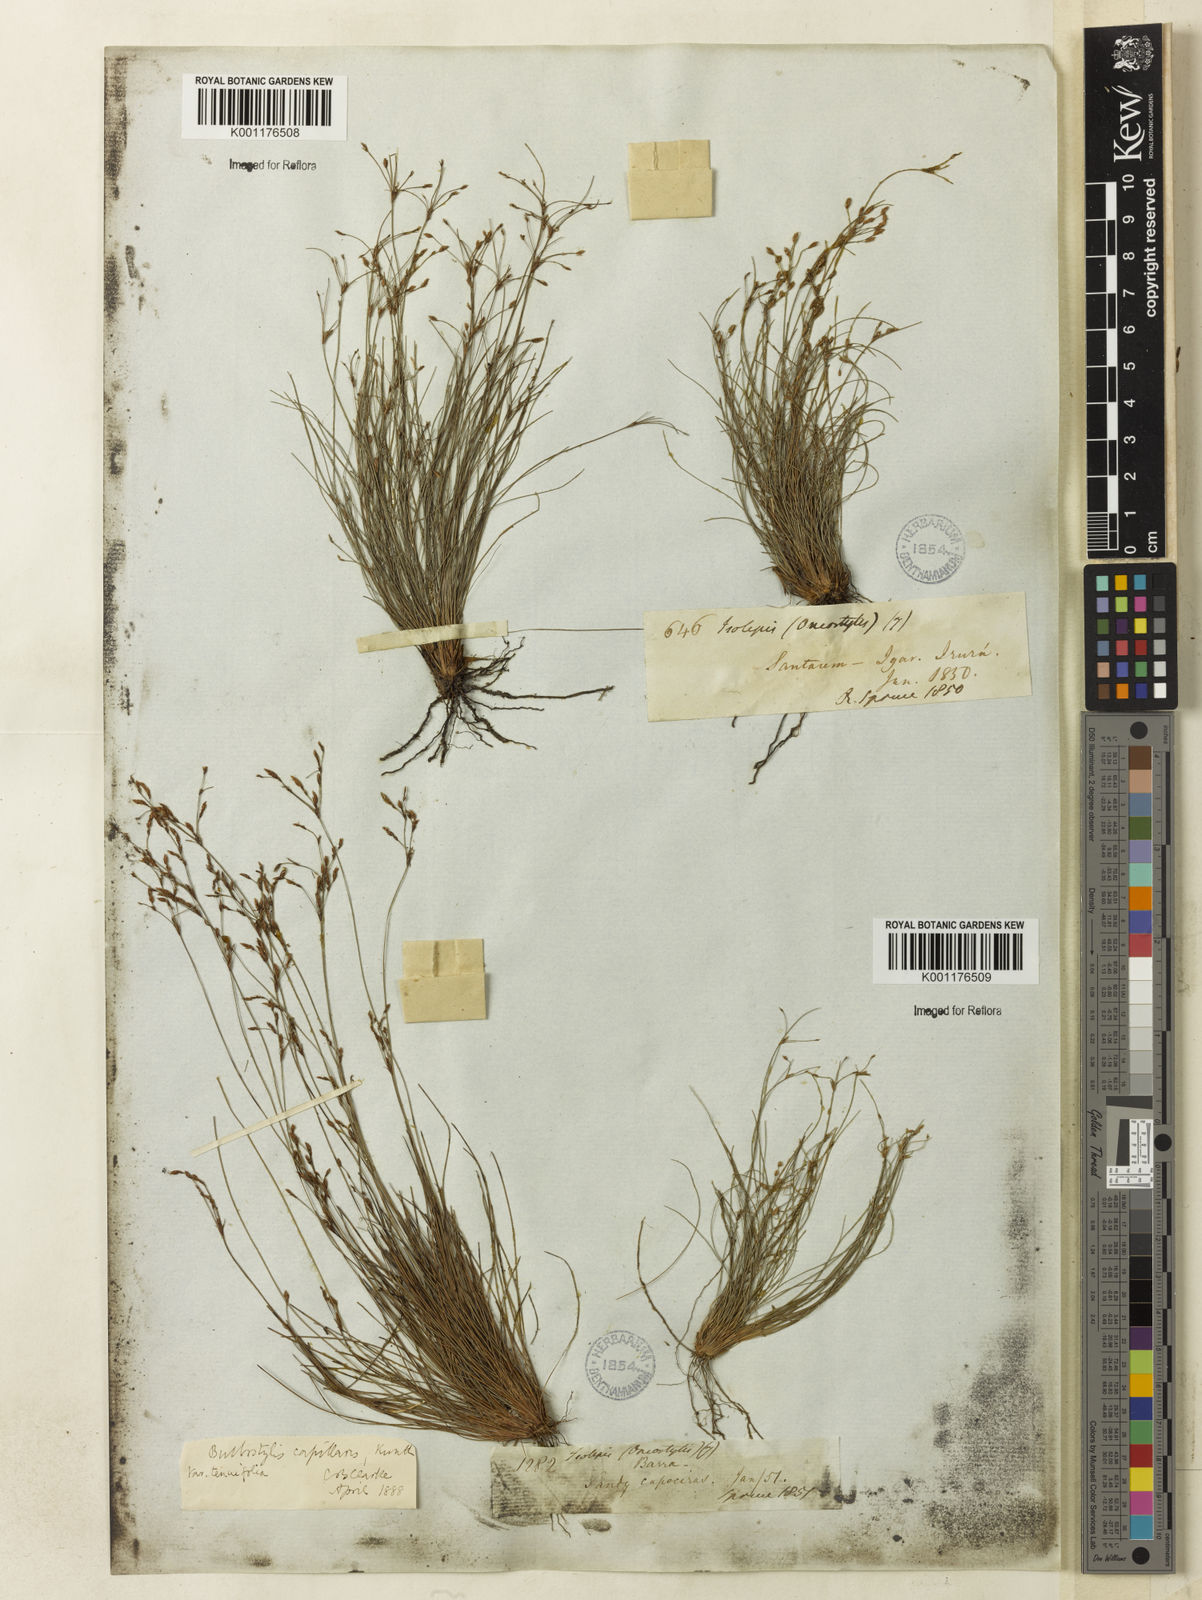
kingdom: Plantae
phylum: Tracheophyta
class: Liliopsida
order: Poales
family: Cyperaceae
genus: Bulbostylis
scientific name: Bulbostylis tenuifolia
